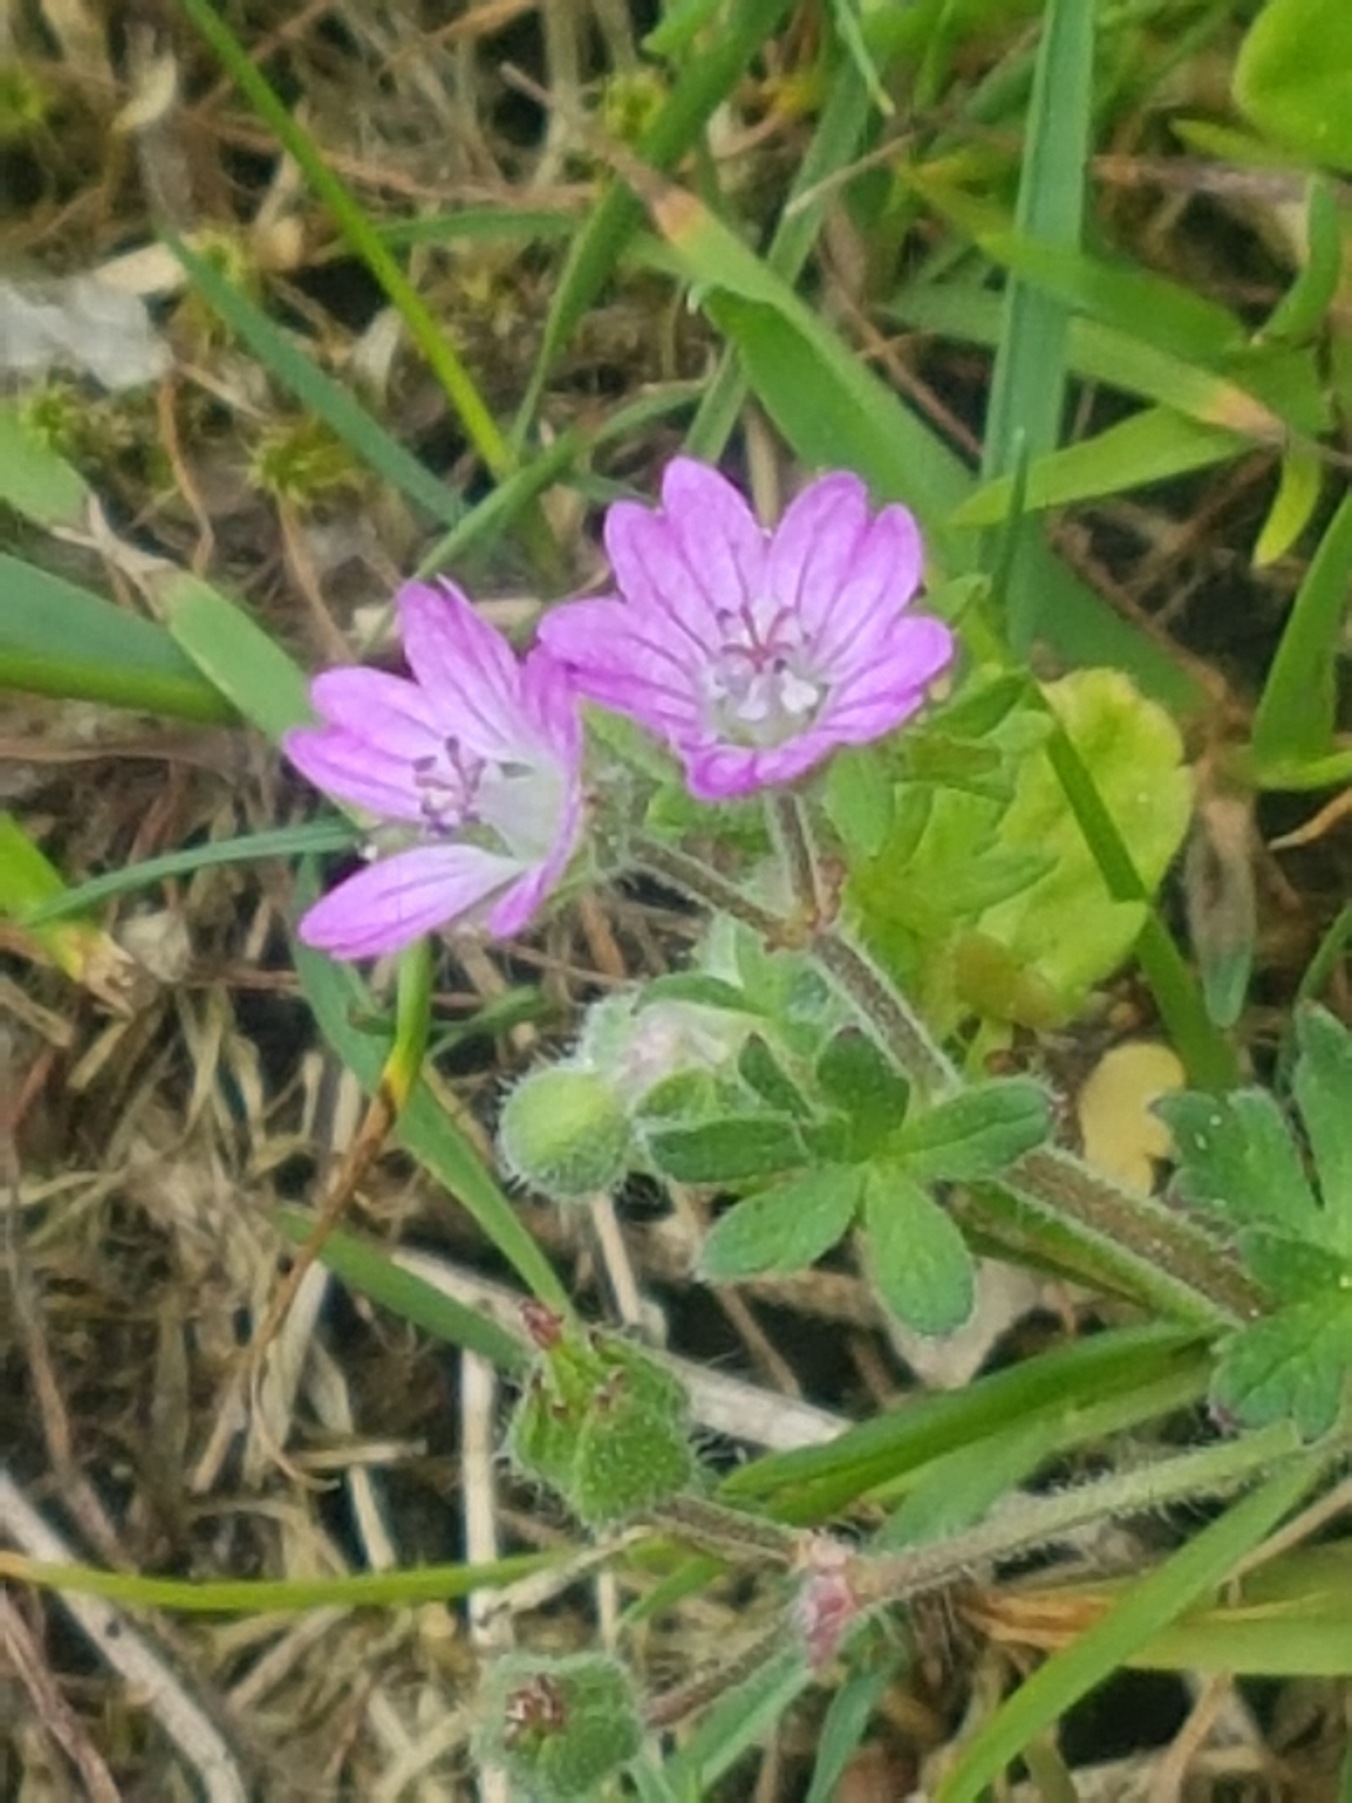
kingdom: Plantae
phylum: Tracheophyta
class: Magnoliopsida
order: Geraniales
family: Geraniaceae
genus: Geranium
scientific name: Geranium molle
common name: Blød storkenæb
